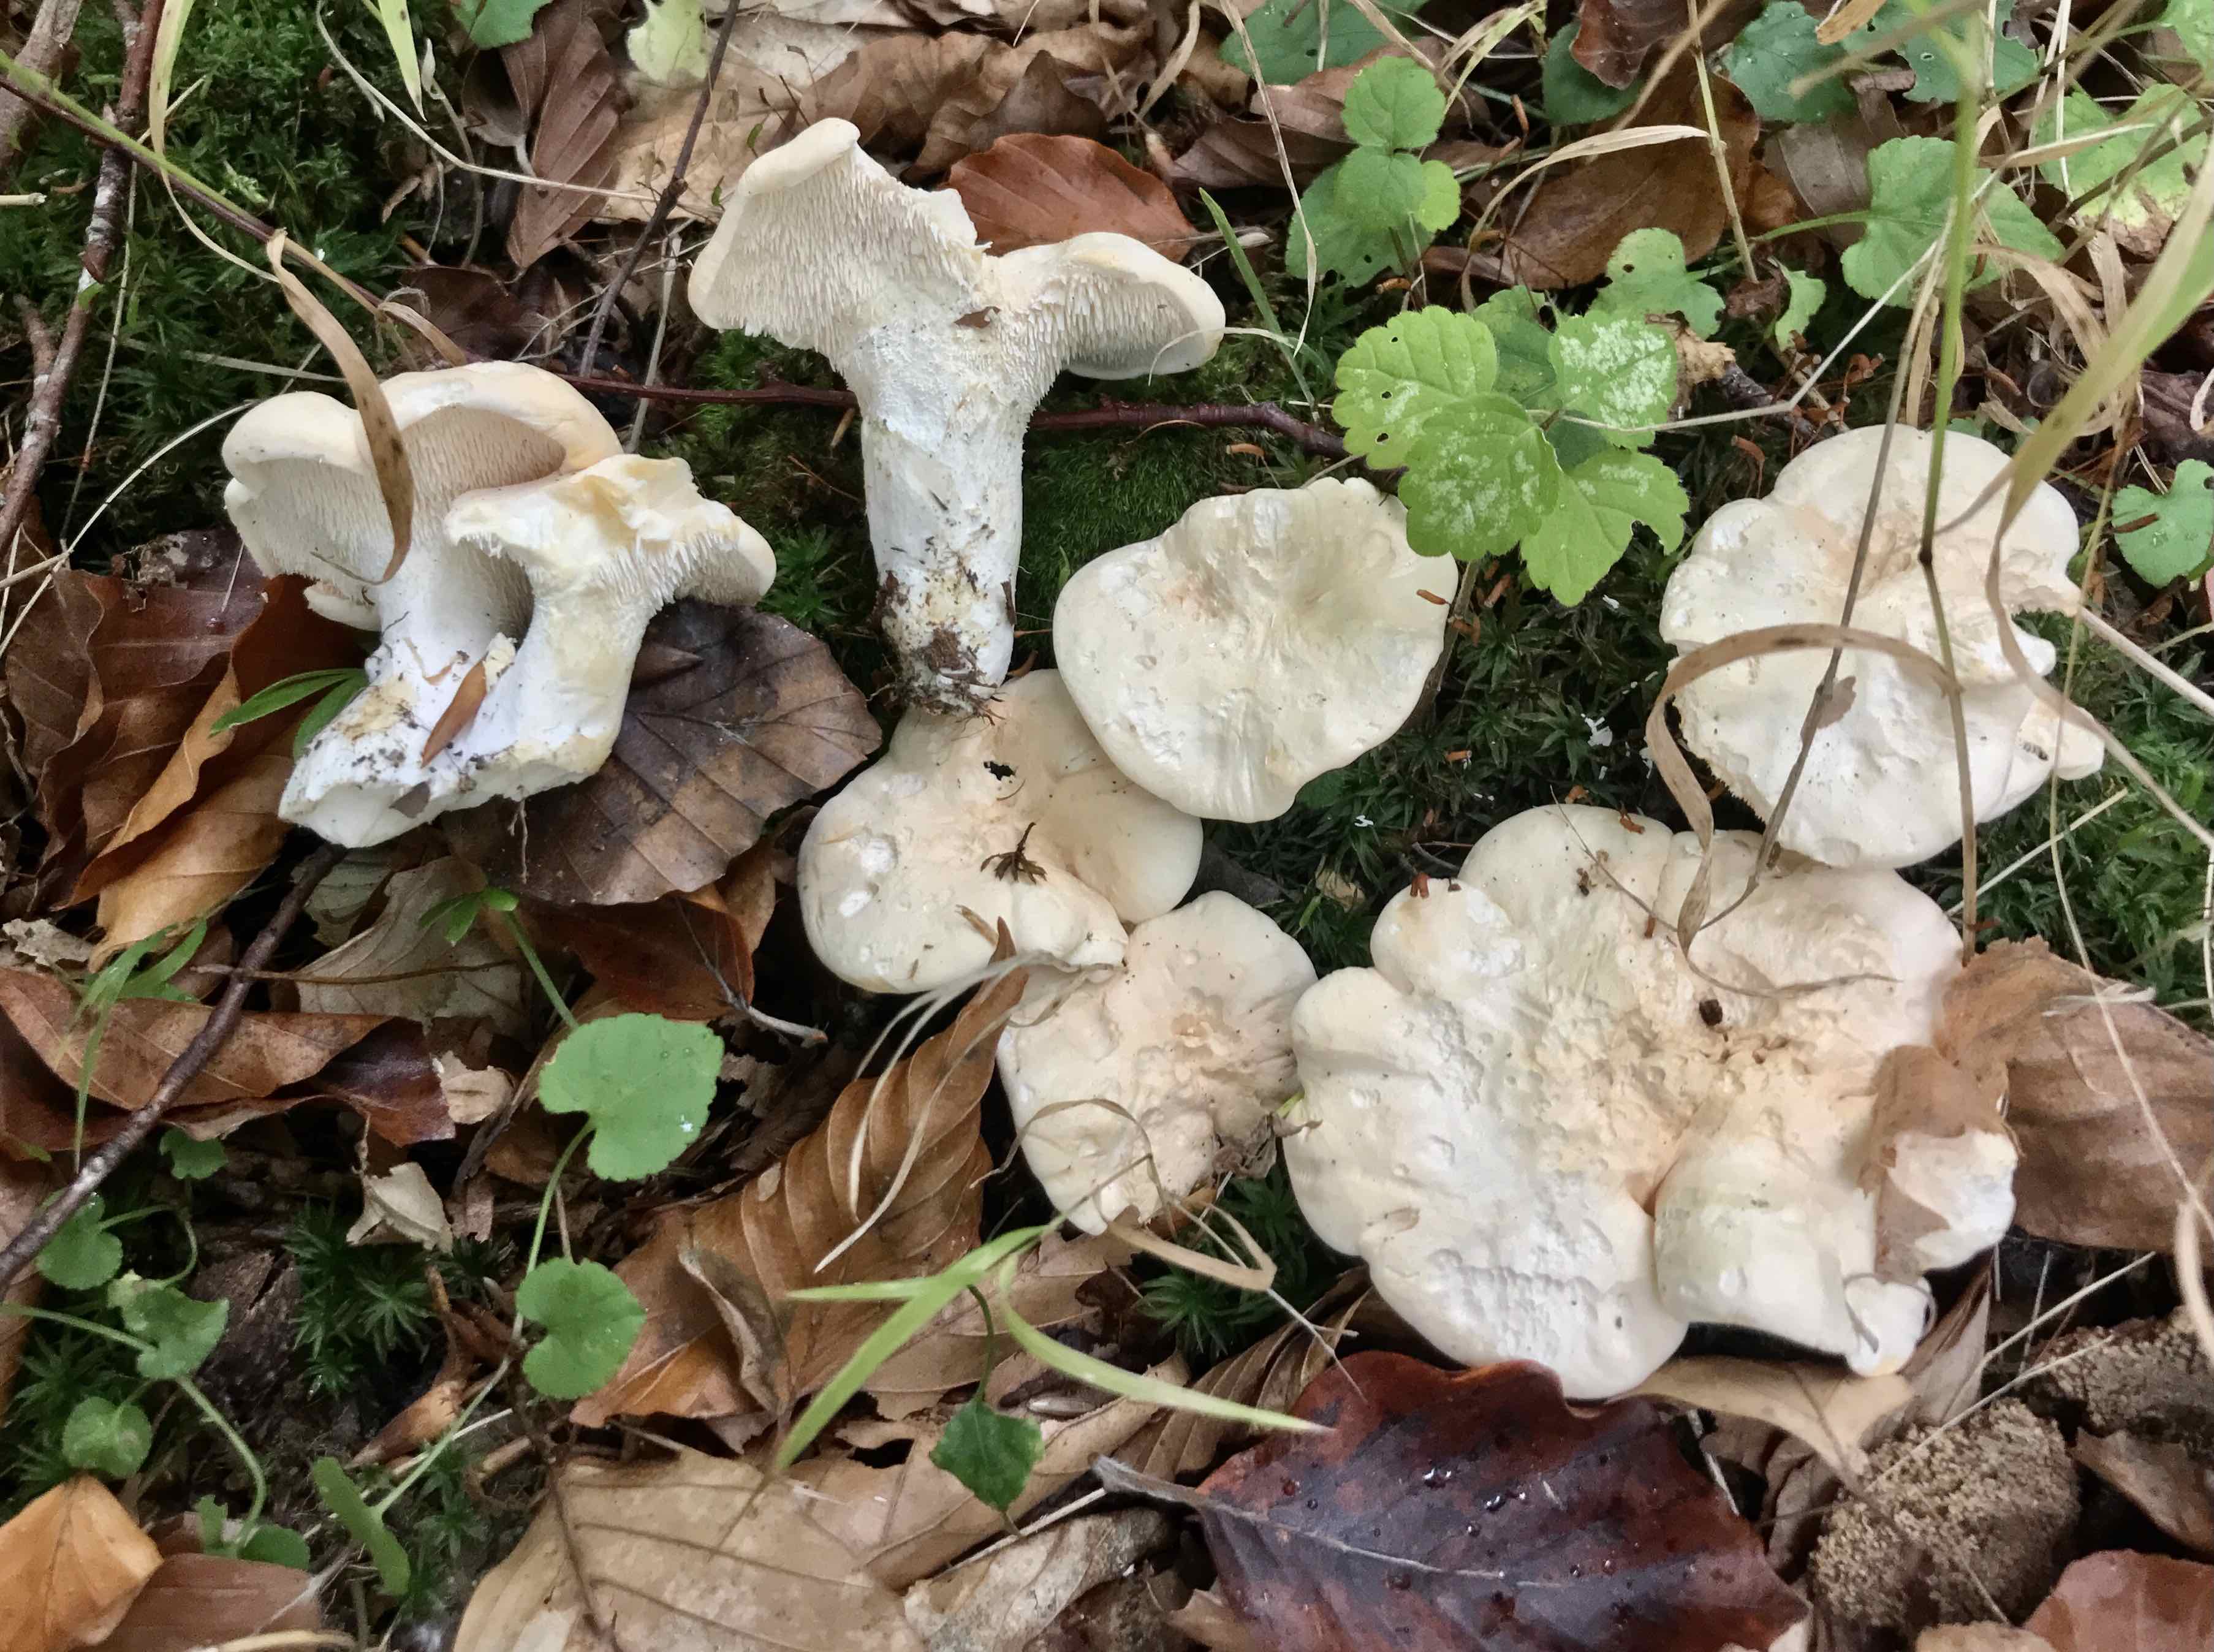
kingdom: Fungi
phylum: Basidiomycota
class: Agaricomycetes
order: Cantharellales
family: Hydnaceae
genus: Hydnum
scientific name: Hydnum repandum
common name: almindelig pigsvamp
